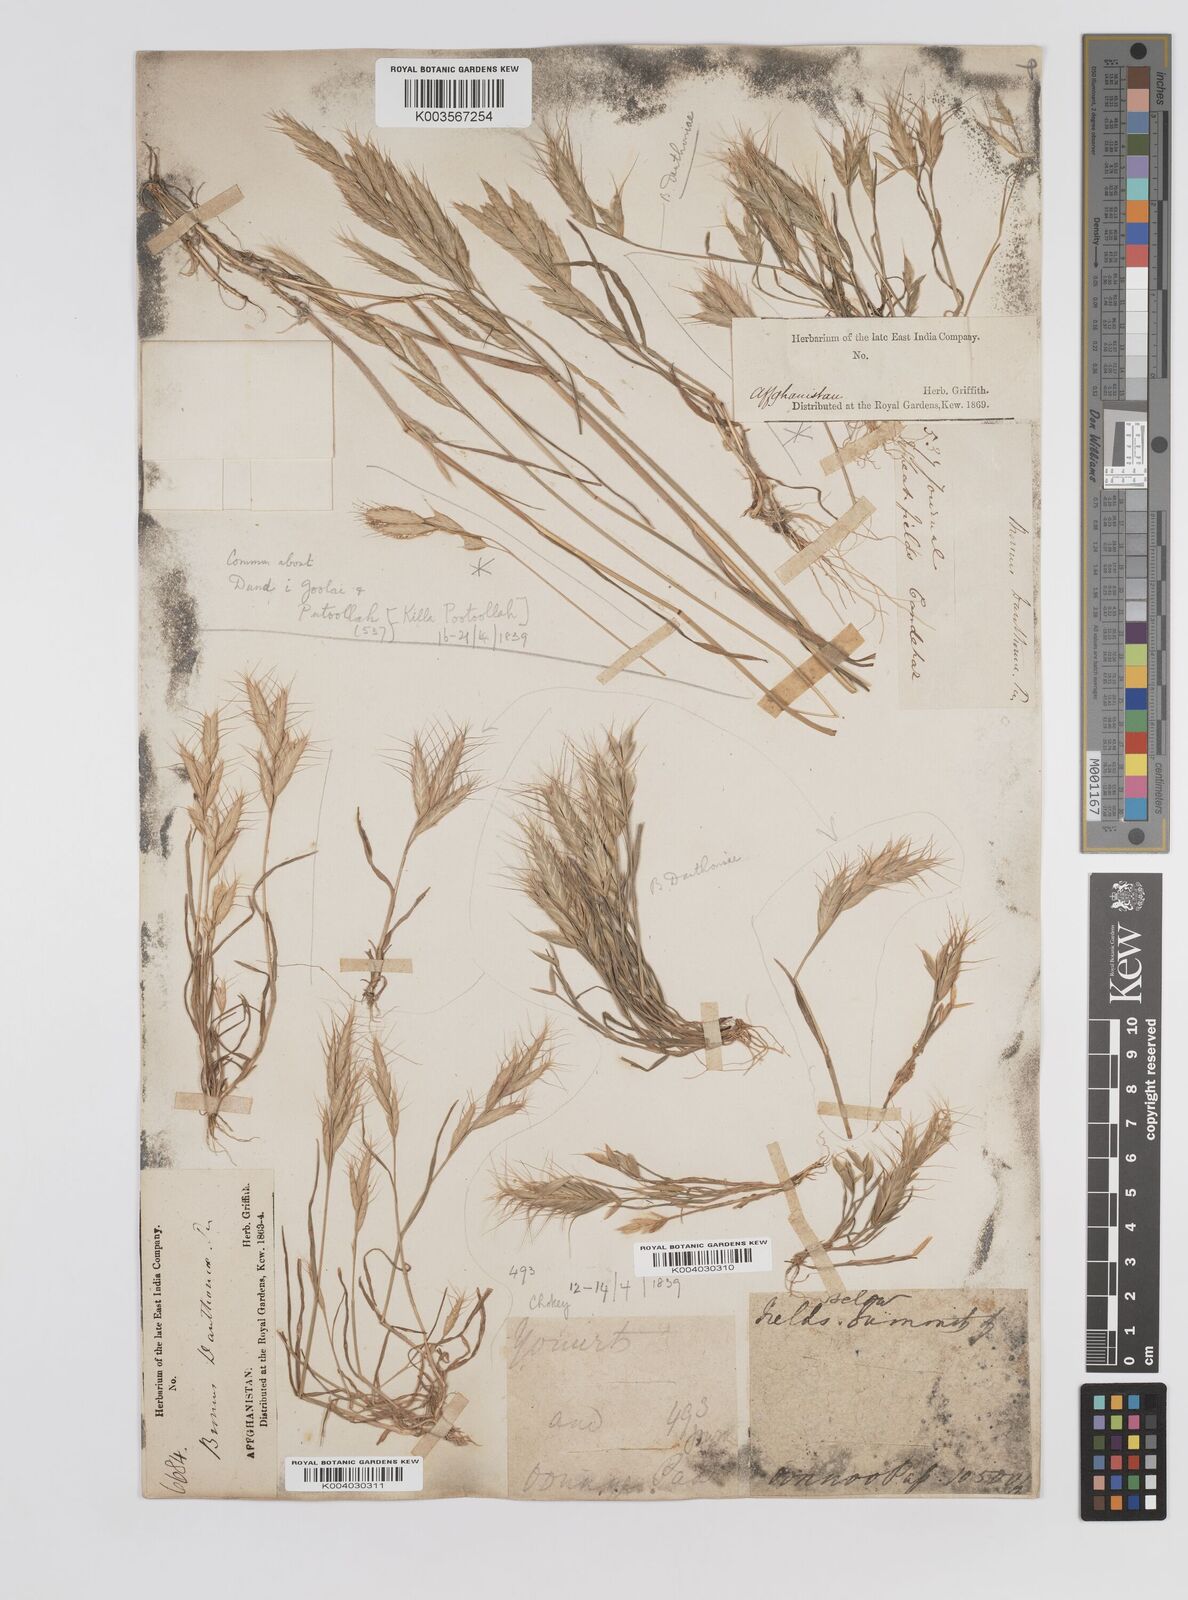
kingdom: Plantae
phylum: Tracheophyta
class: Liliopsida
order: Poales
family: Poaceae
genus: Bromus
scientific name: Bromus danthoniae
